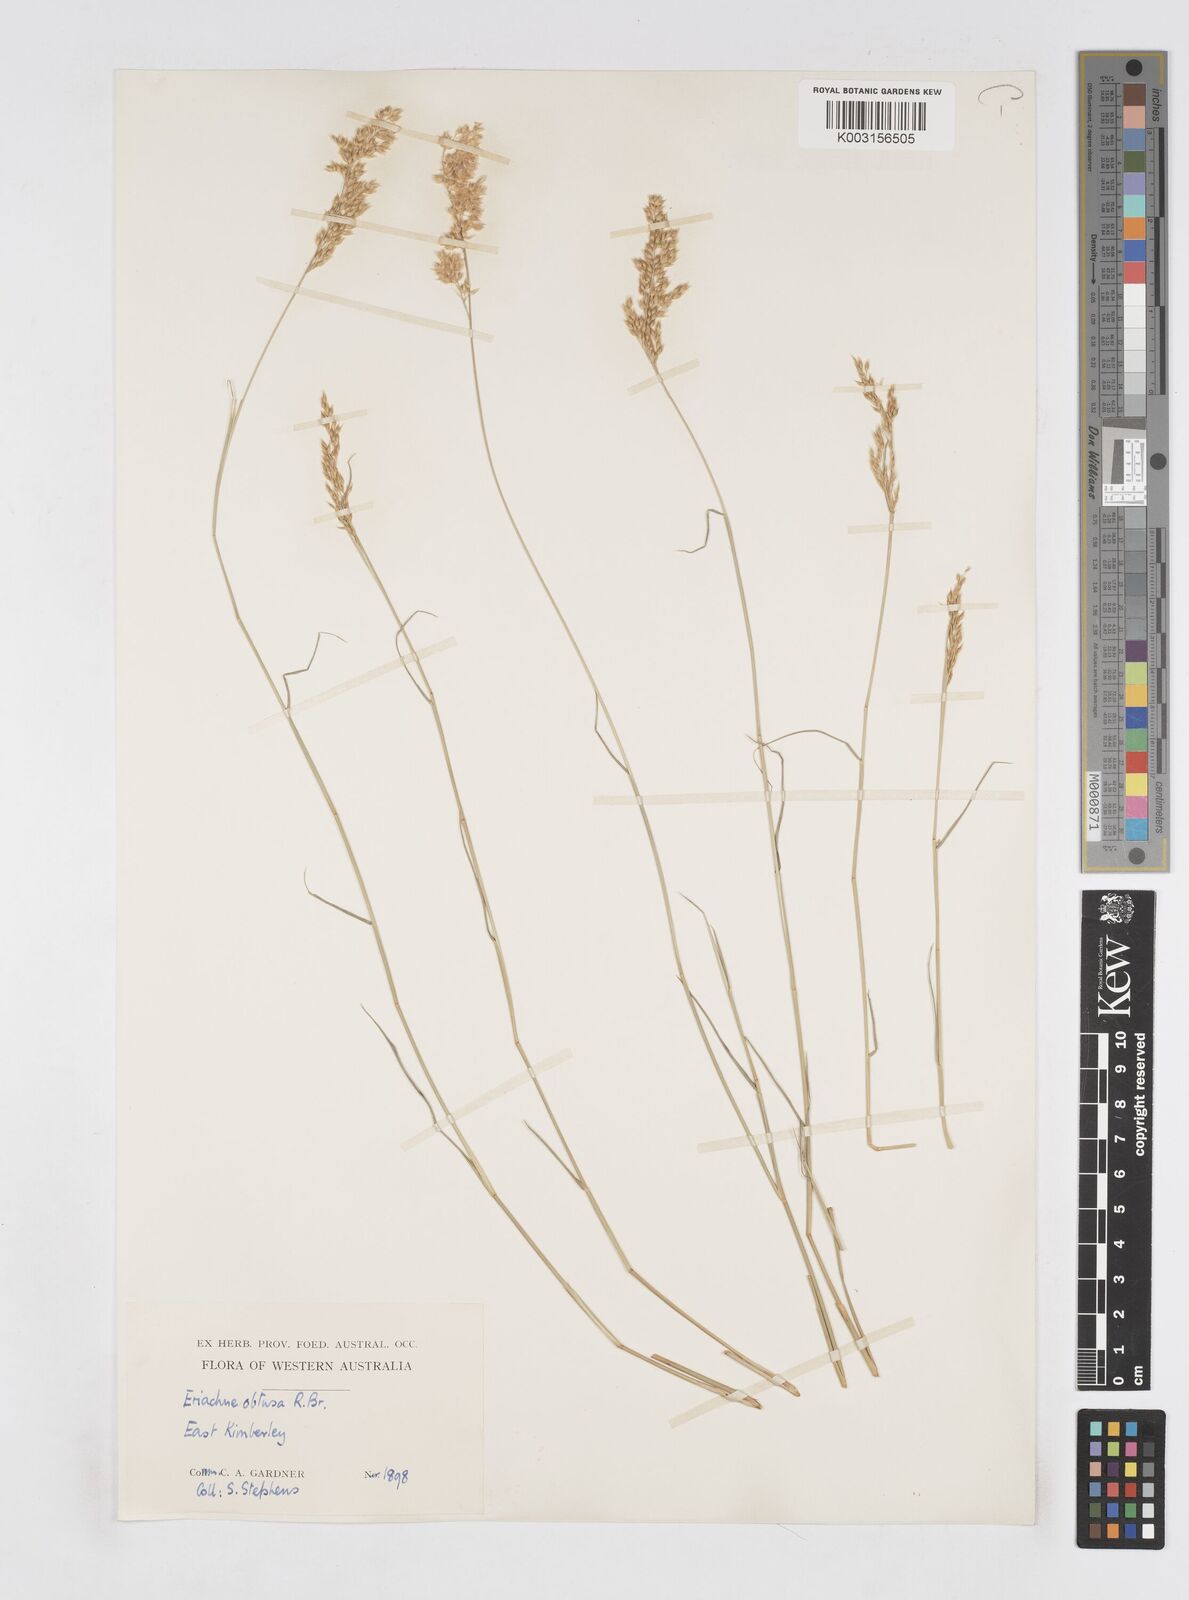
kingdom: Plantae
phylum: Tracheophyta
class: Liliopsida
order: Poales
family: Poaceae
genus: Eriachne
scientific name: Eriachne obtusa
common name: Northern wanderrie grass
